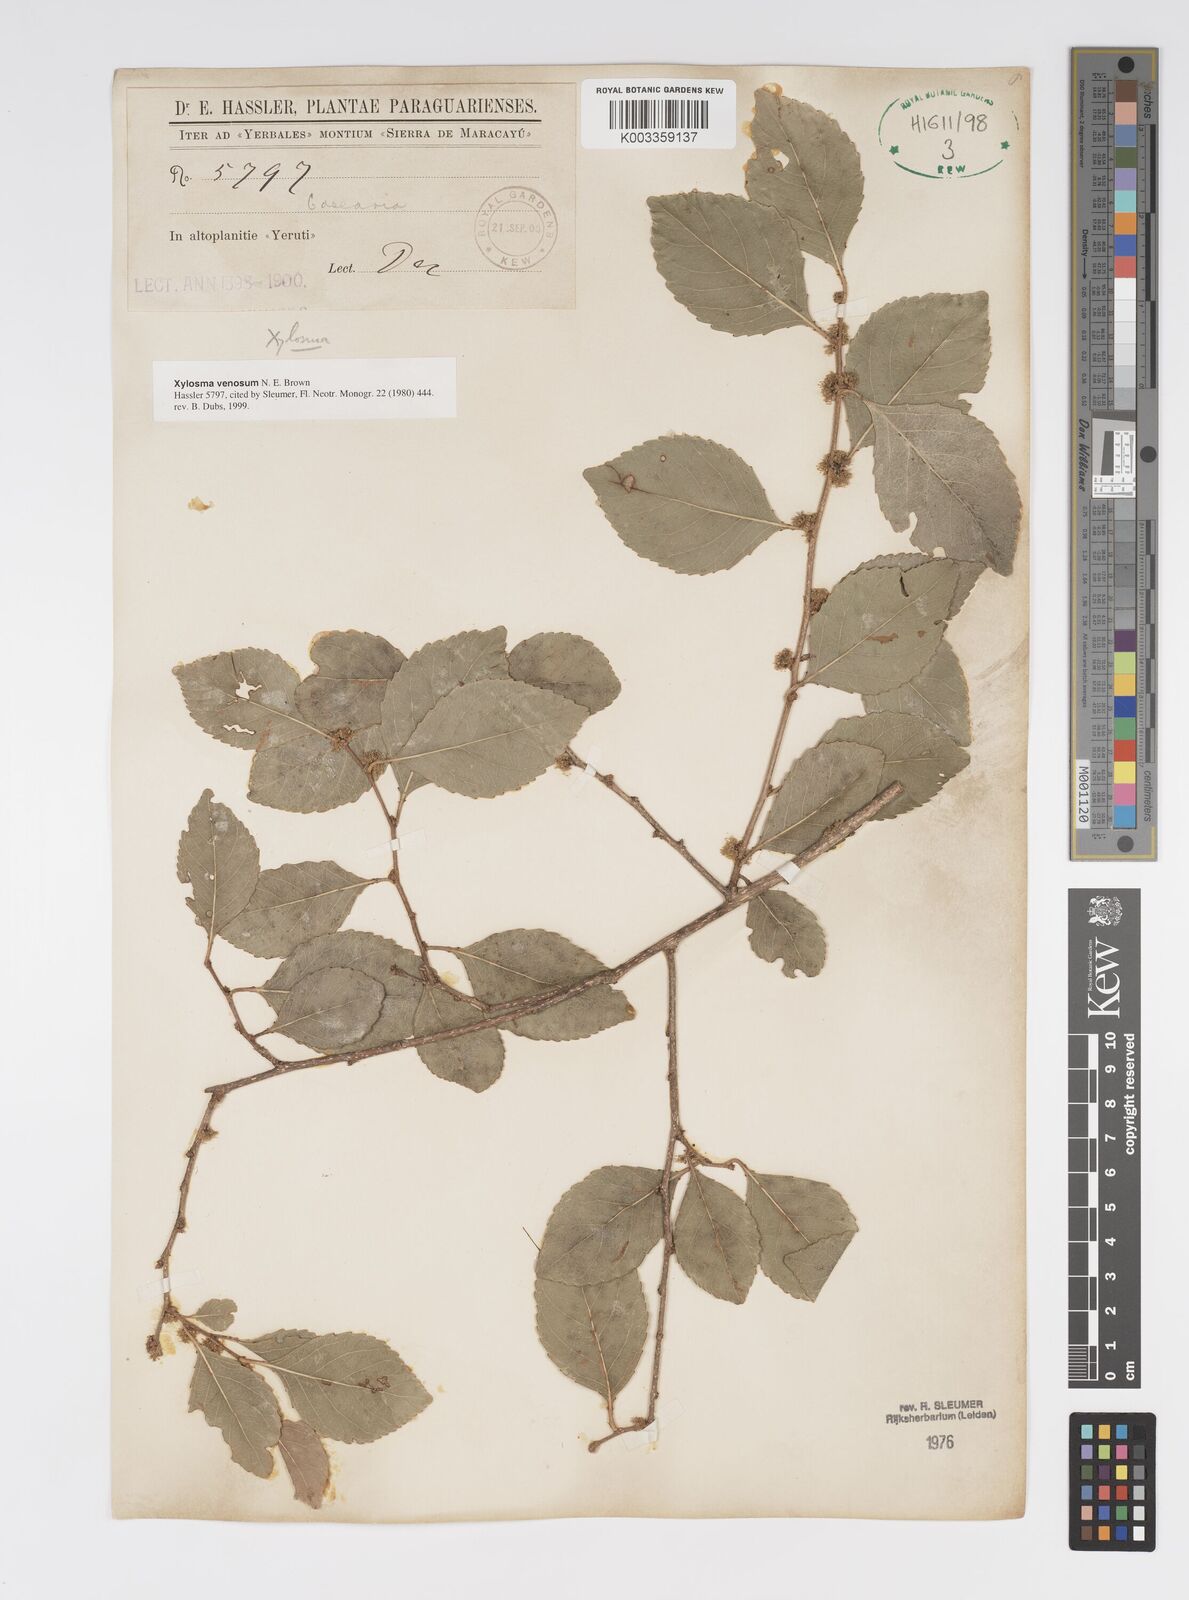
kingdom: Plantae
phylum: Tracheophyta
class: Magnoliopsida
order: Malpighiales
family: Salicaceae
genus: Xylosma
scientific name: Xylosma venosa
